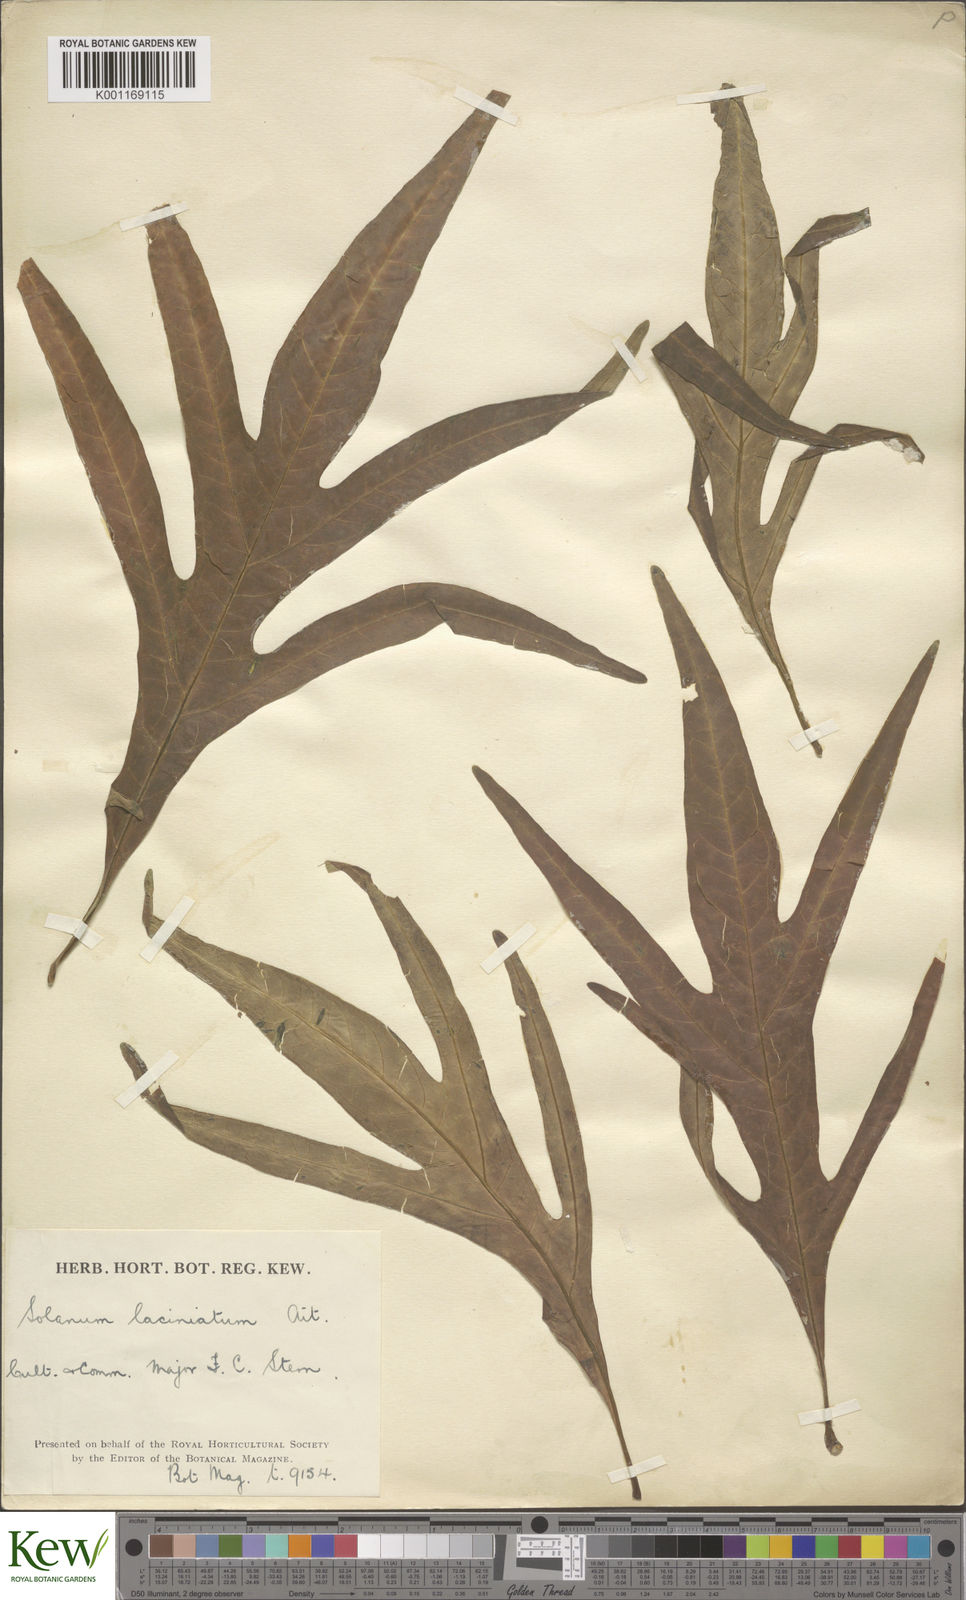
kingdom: Plantae
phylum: Tracheophyta
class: Magnoliopsida
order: Solanales
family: Solanaceae
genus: Solanum
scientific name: Solanum laciniatum
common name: Kangaroo-apple
